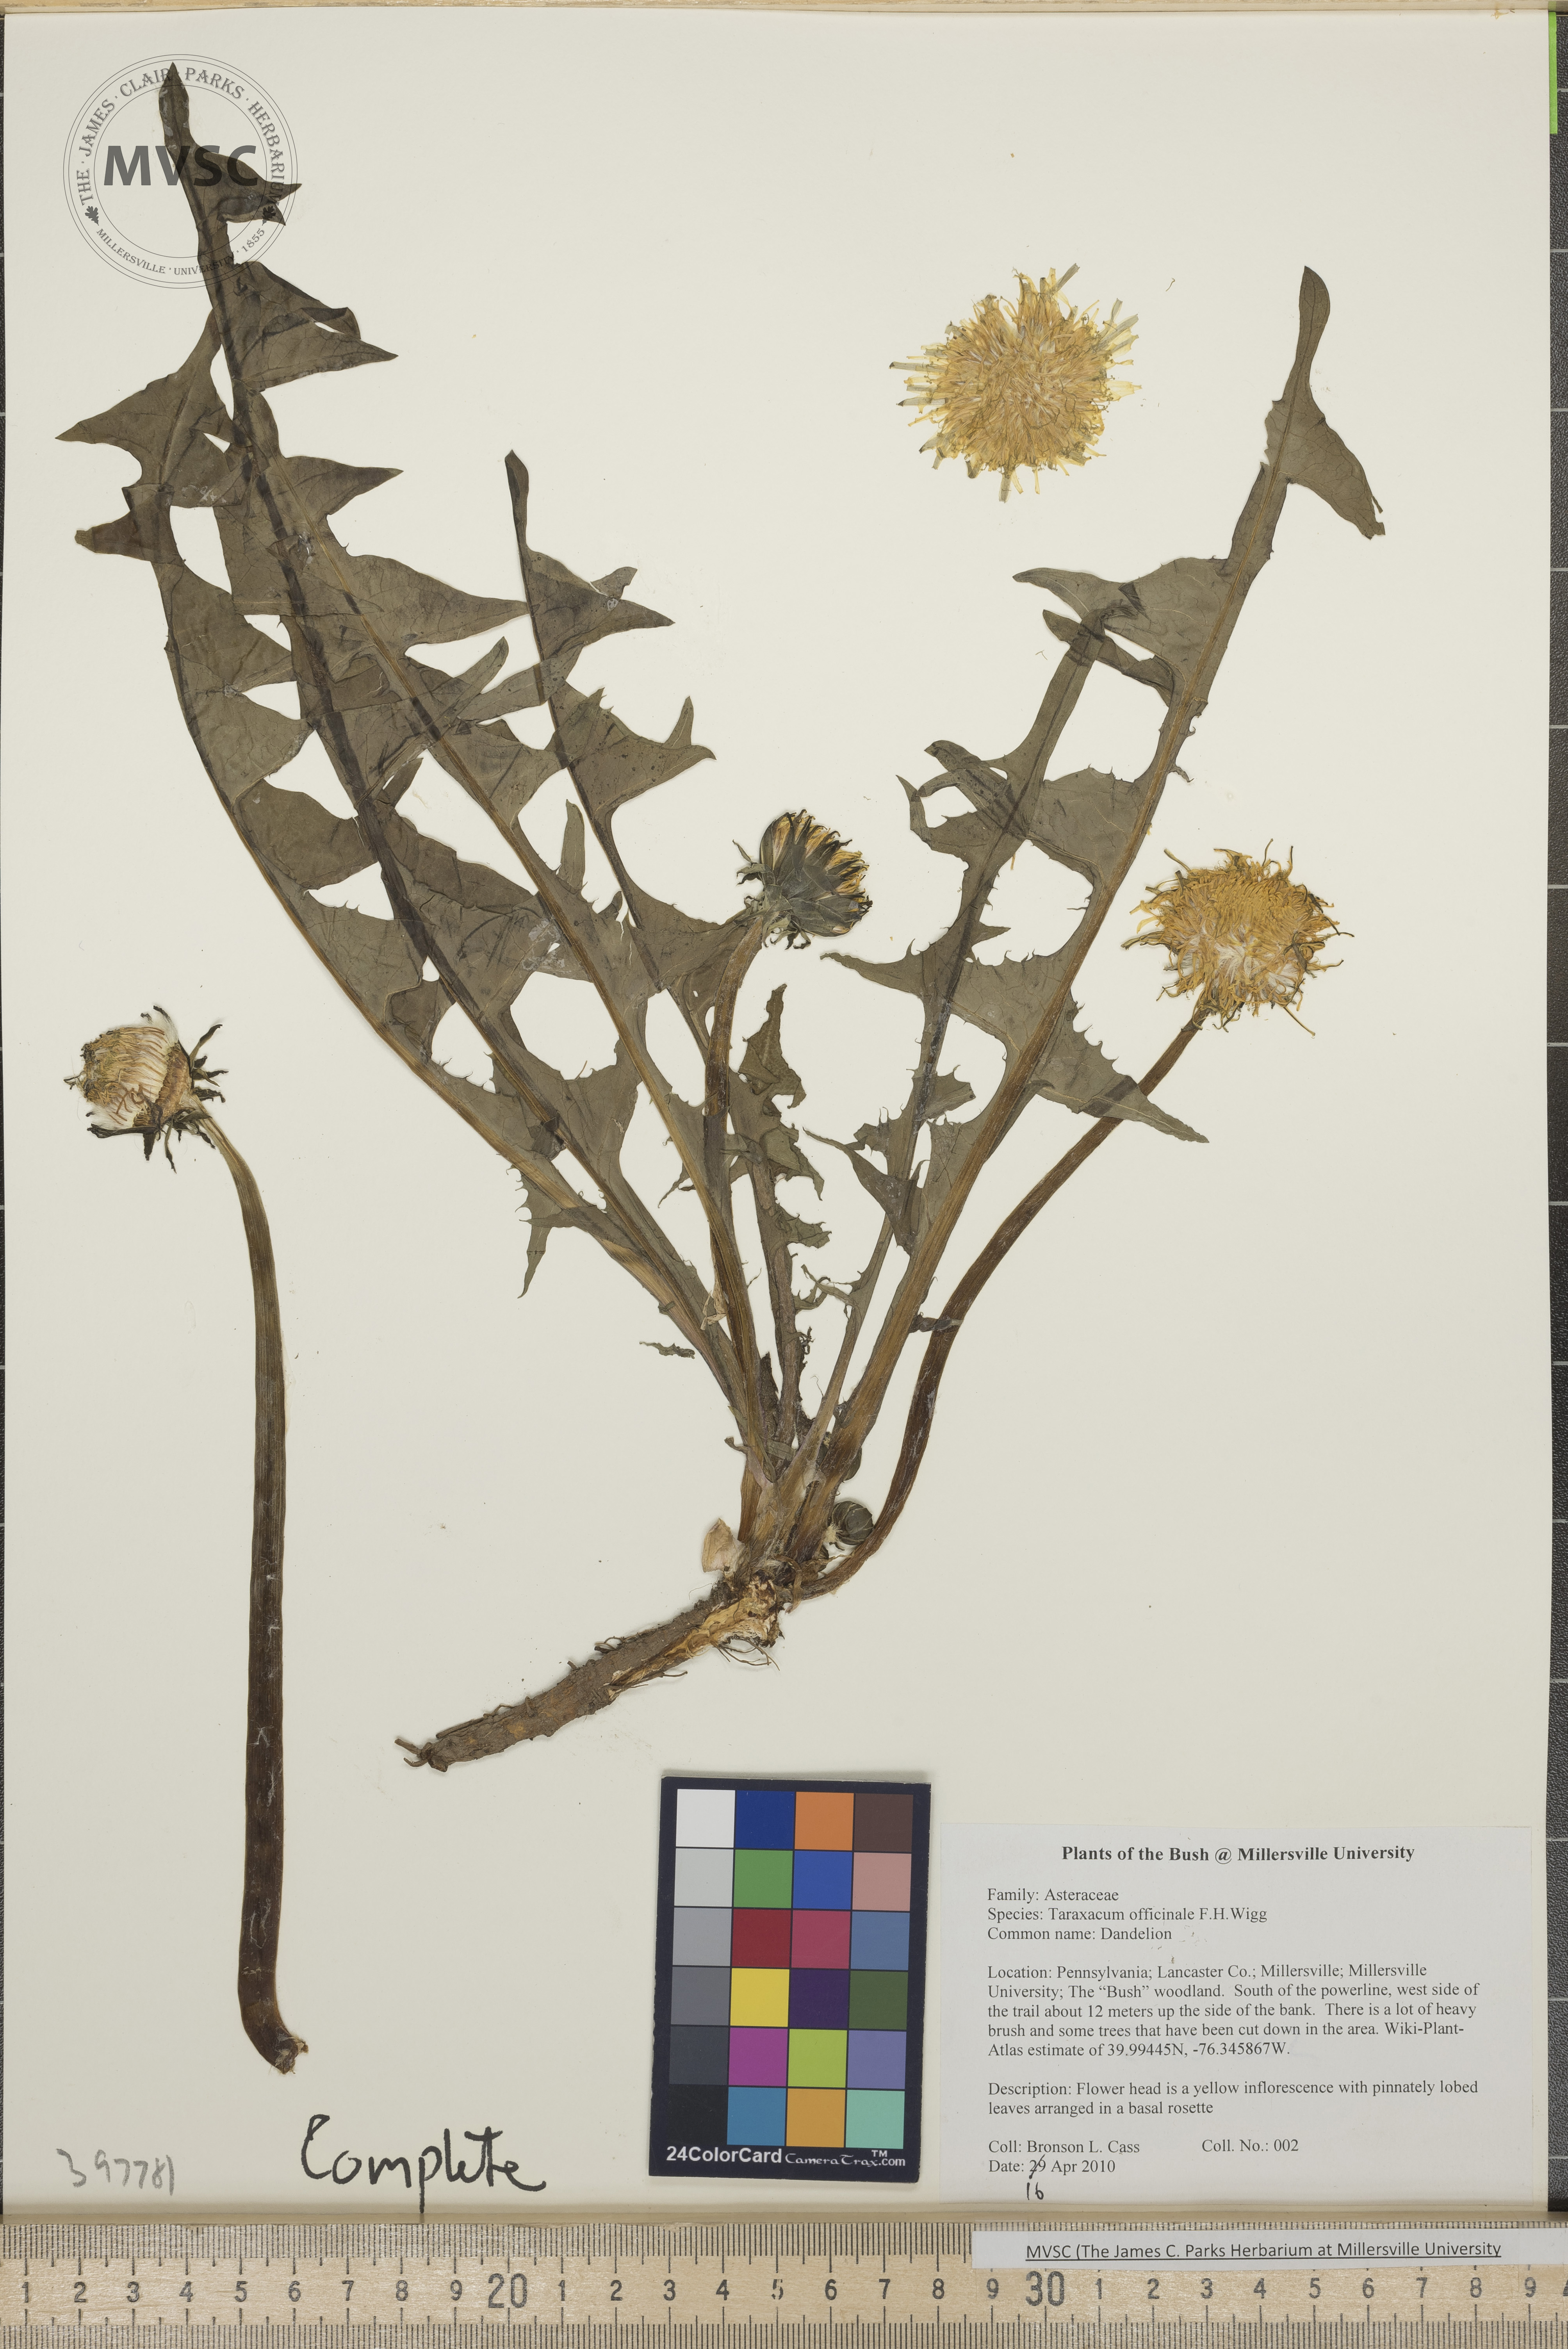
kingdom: Plantae
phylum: Tracheophyta
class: Magnoliopsida
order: Asterales
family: Asteraceae
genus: Taraxacum
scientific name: Taraxacum officinale
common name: Common dandelion
